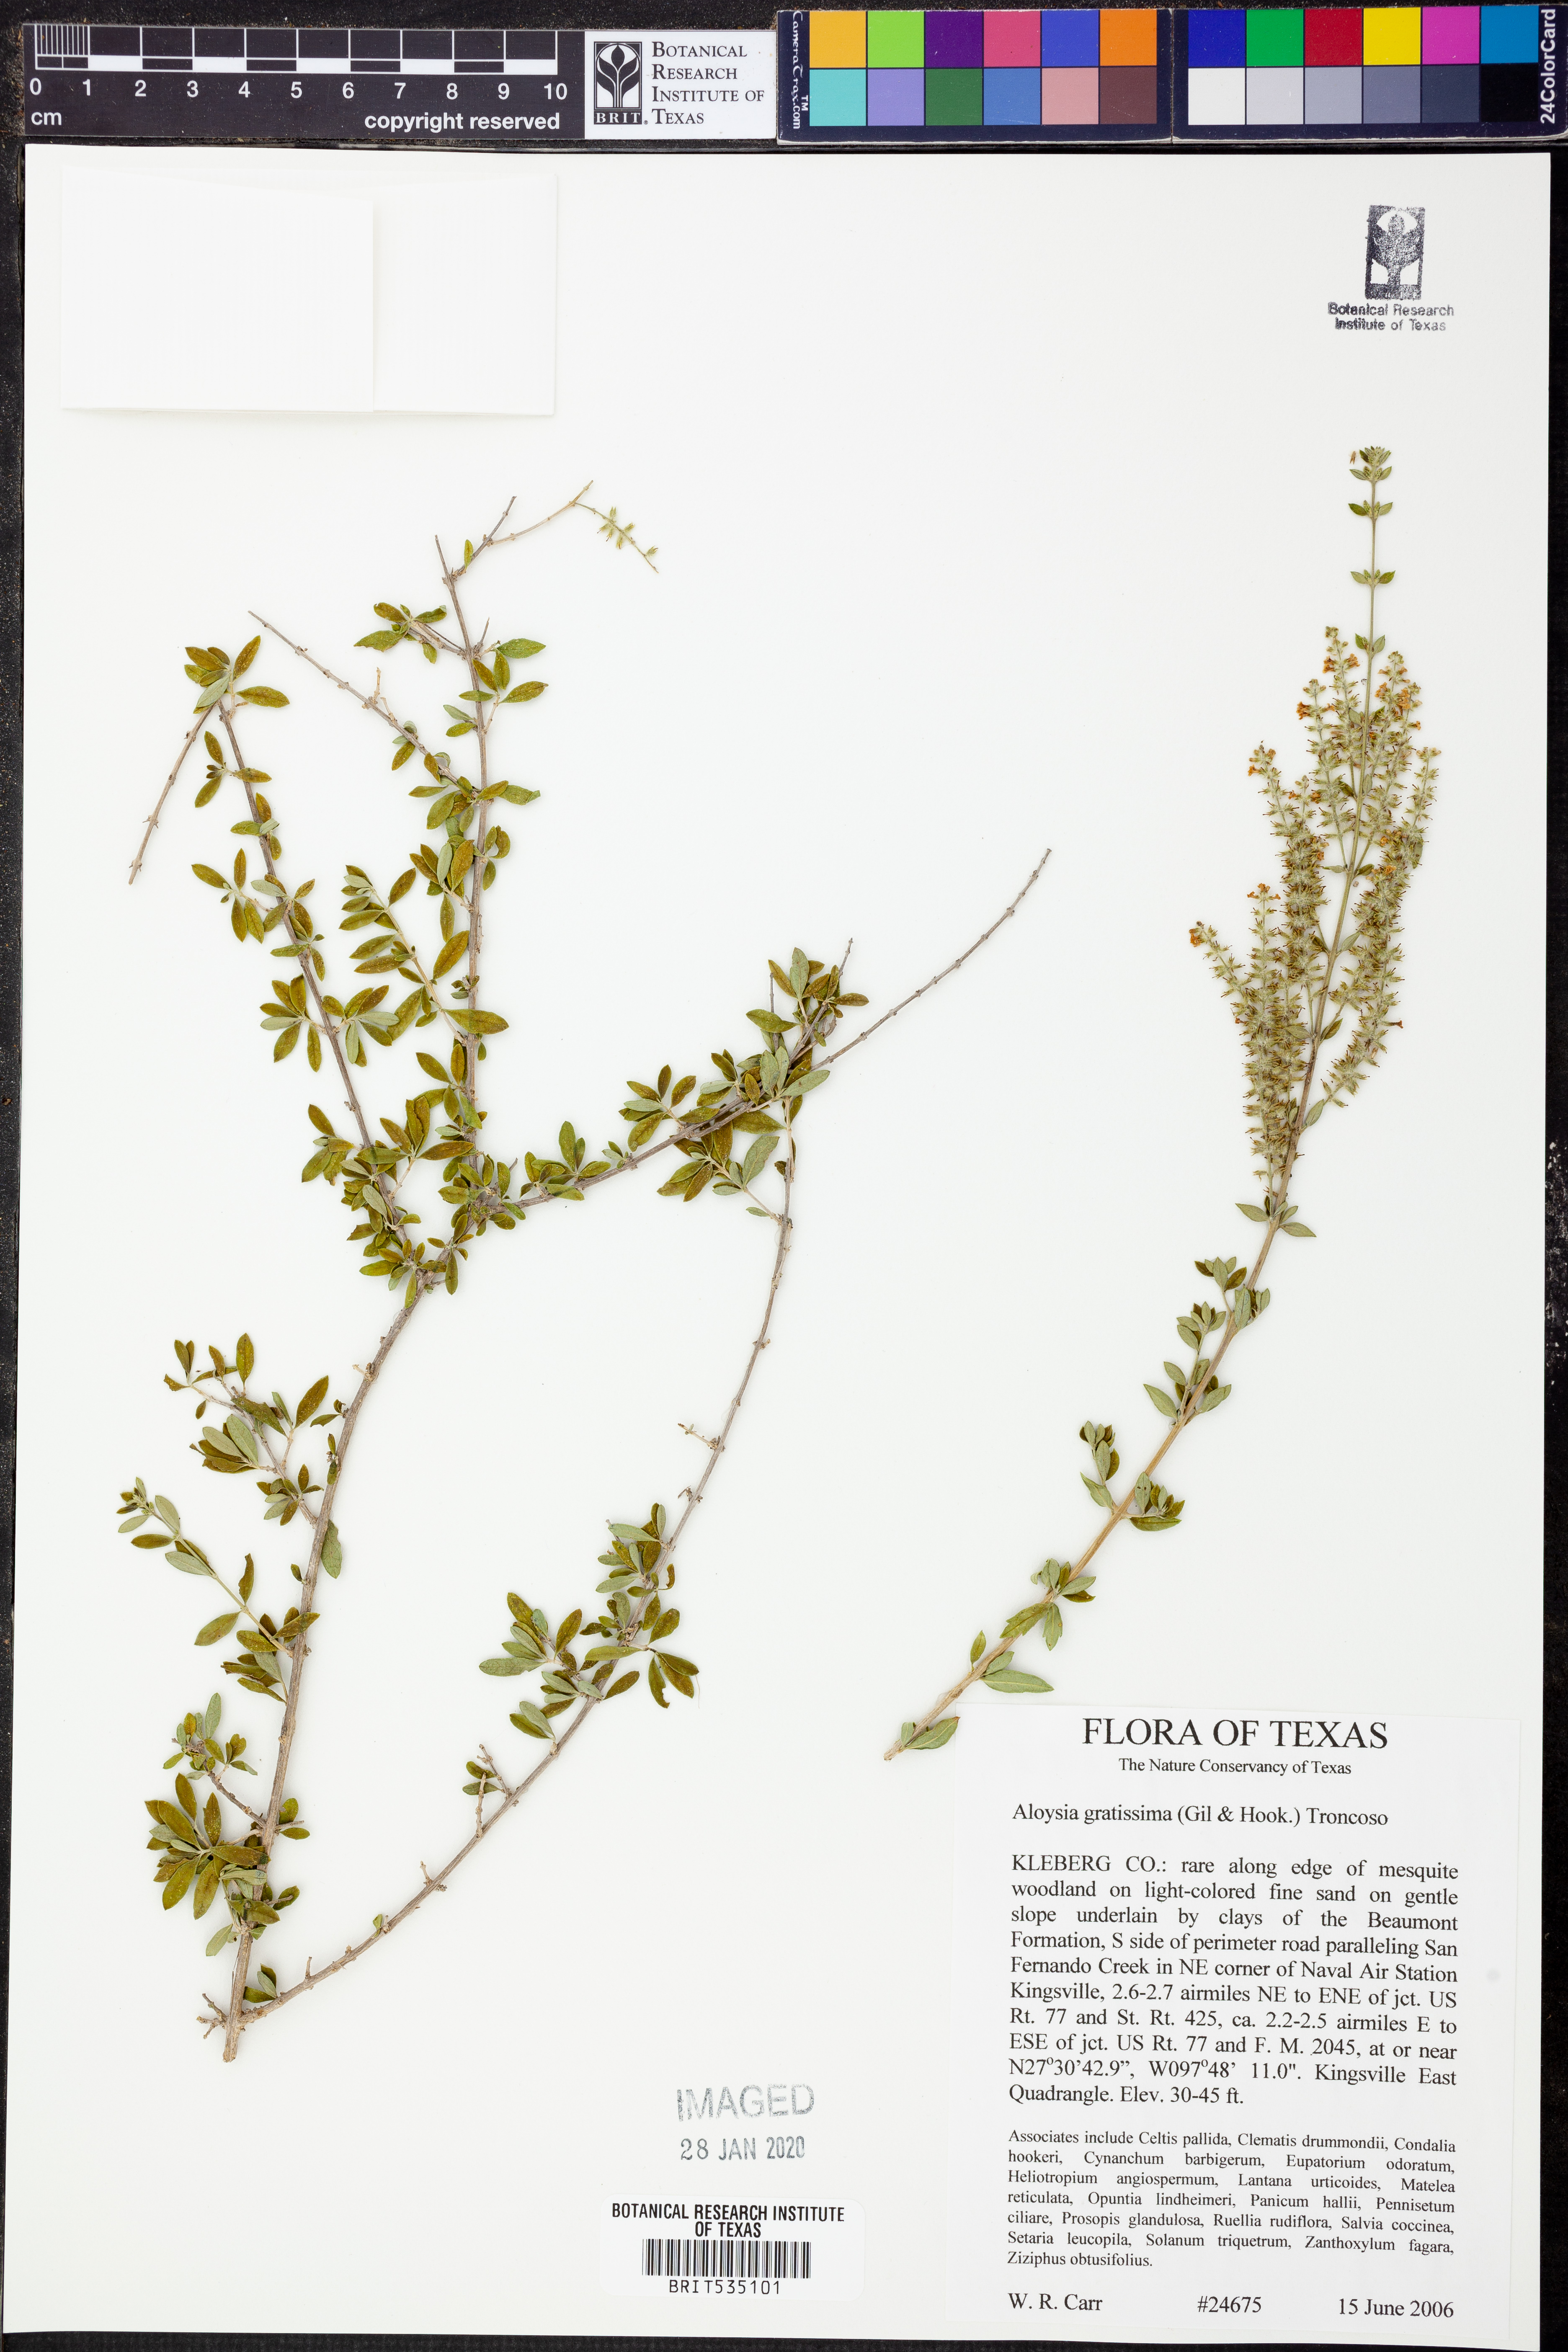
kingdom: Plantae
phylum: Tracheophyta
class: Magnoliopsida
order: Lamiales
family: Verbenaceae
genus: Aloysia
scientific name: Aloysia gratissima
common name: Common bee-brush
